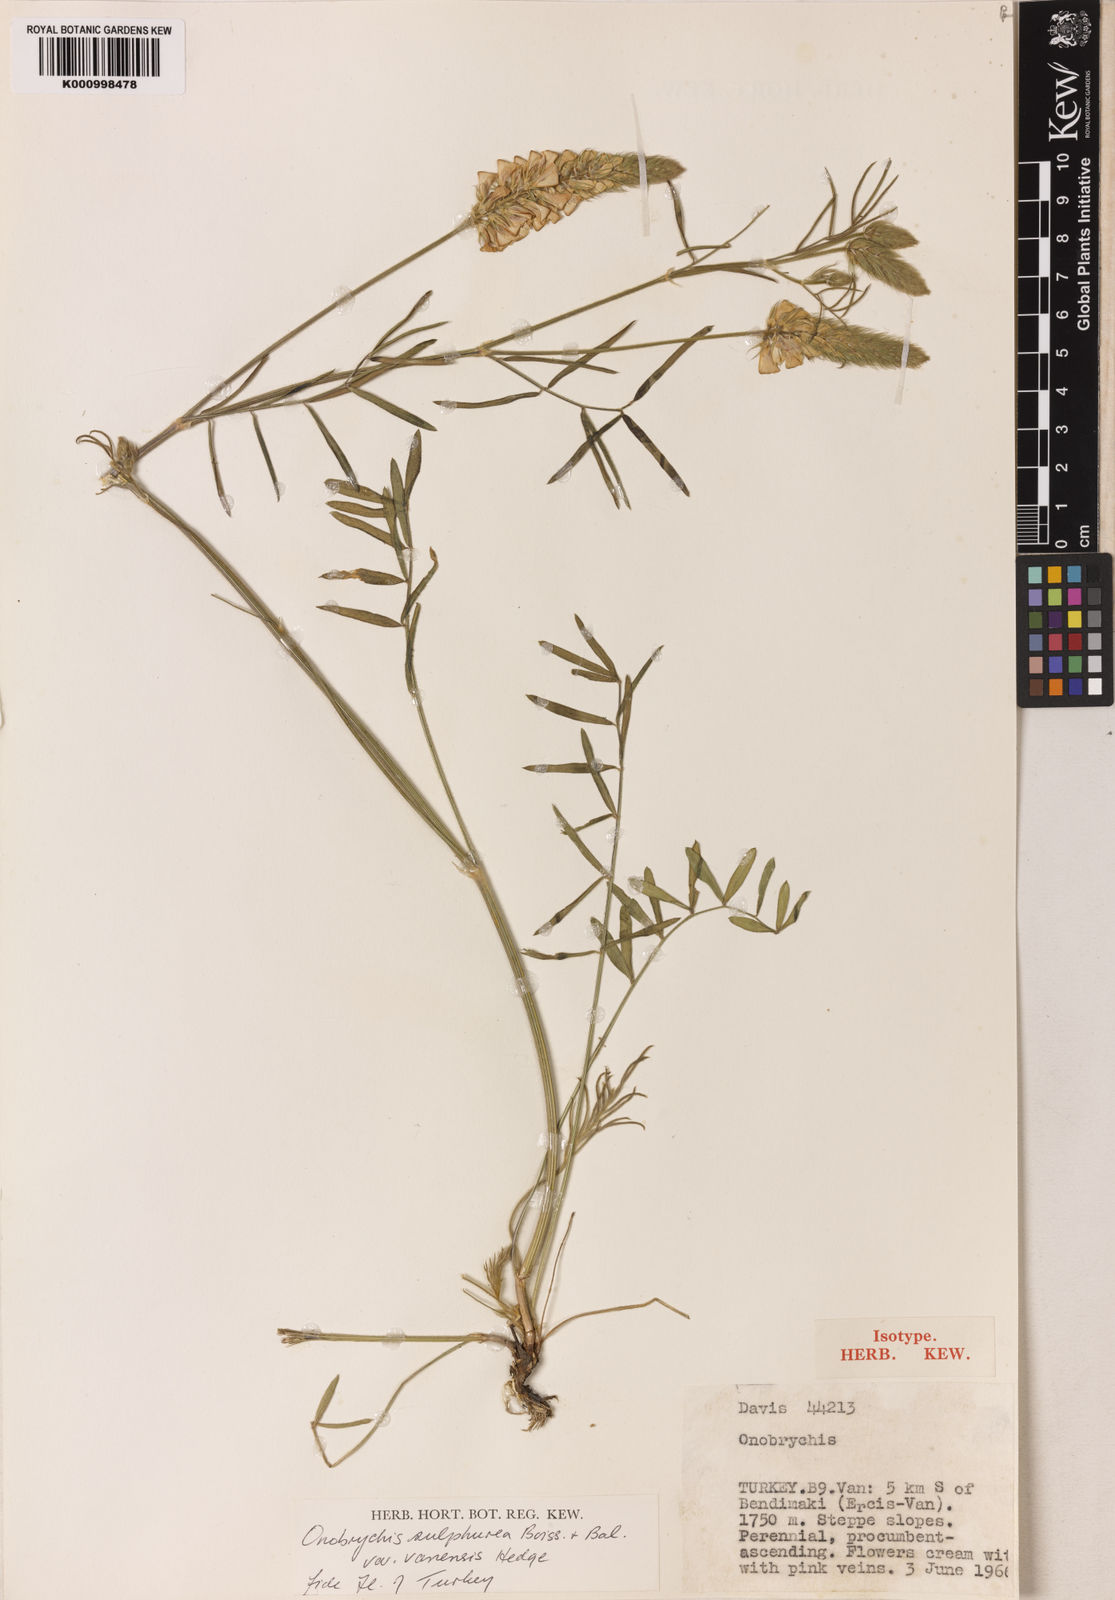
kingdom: Plantae
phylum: Tracheophyta
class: Magnoliopsida
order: Fabales
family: Fabaceae
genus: Onobrychis
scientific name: Onobrychis sulphurea
